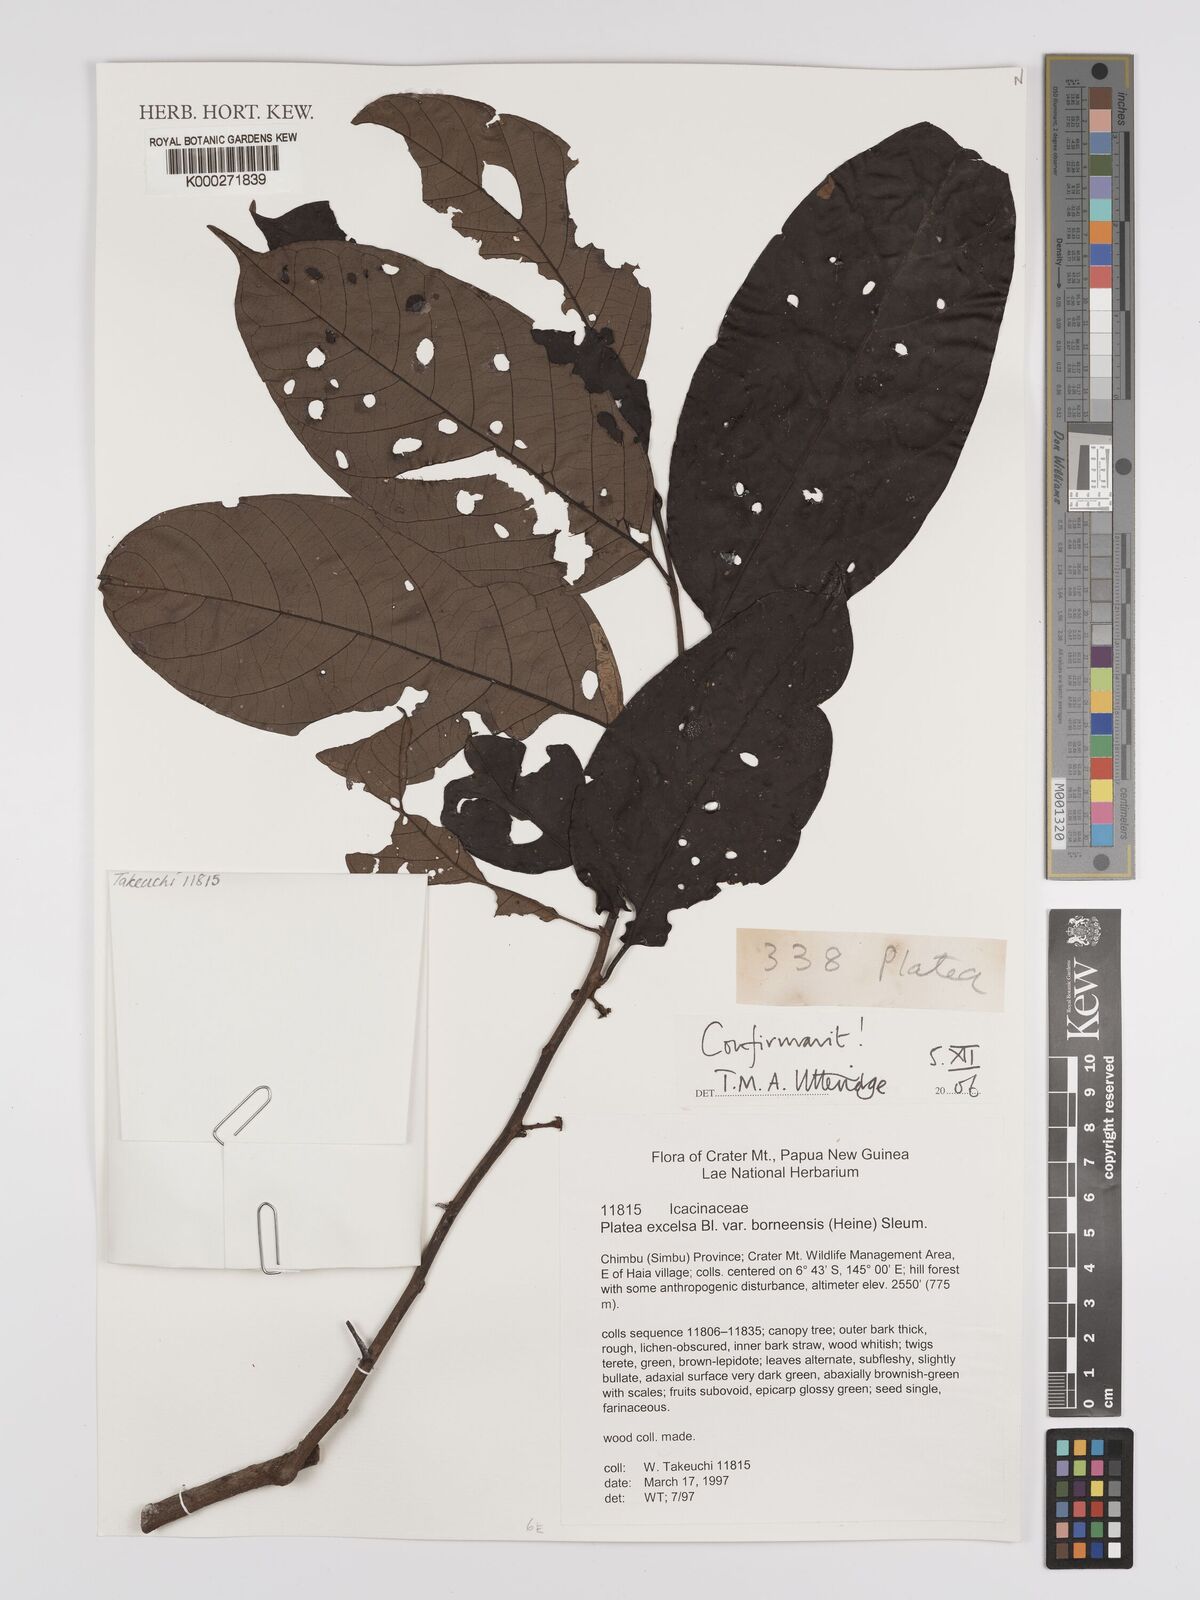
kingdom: Plantae
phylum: Tracheophyta
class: Magnoliopsida
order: Metteniusales
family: Metteniusaceae
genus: Platea
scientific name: Platea excelsa
